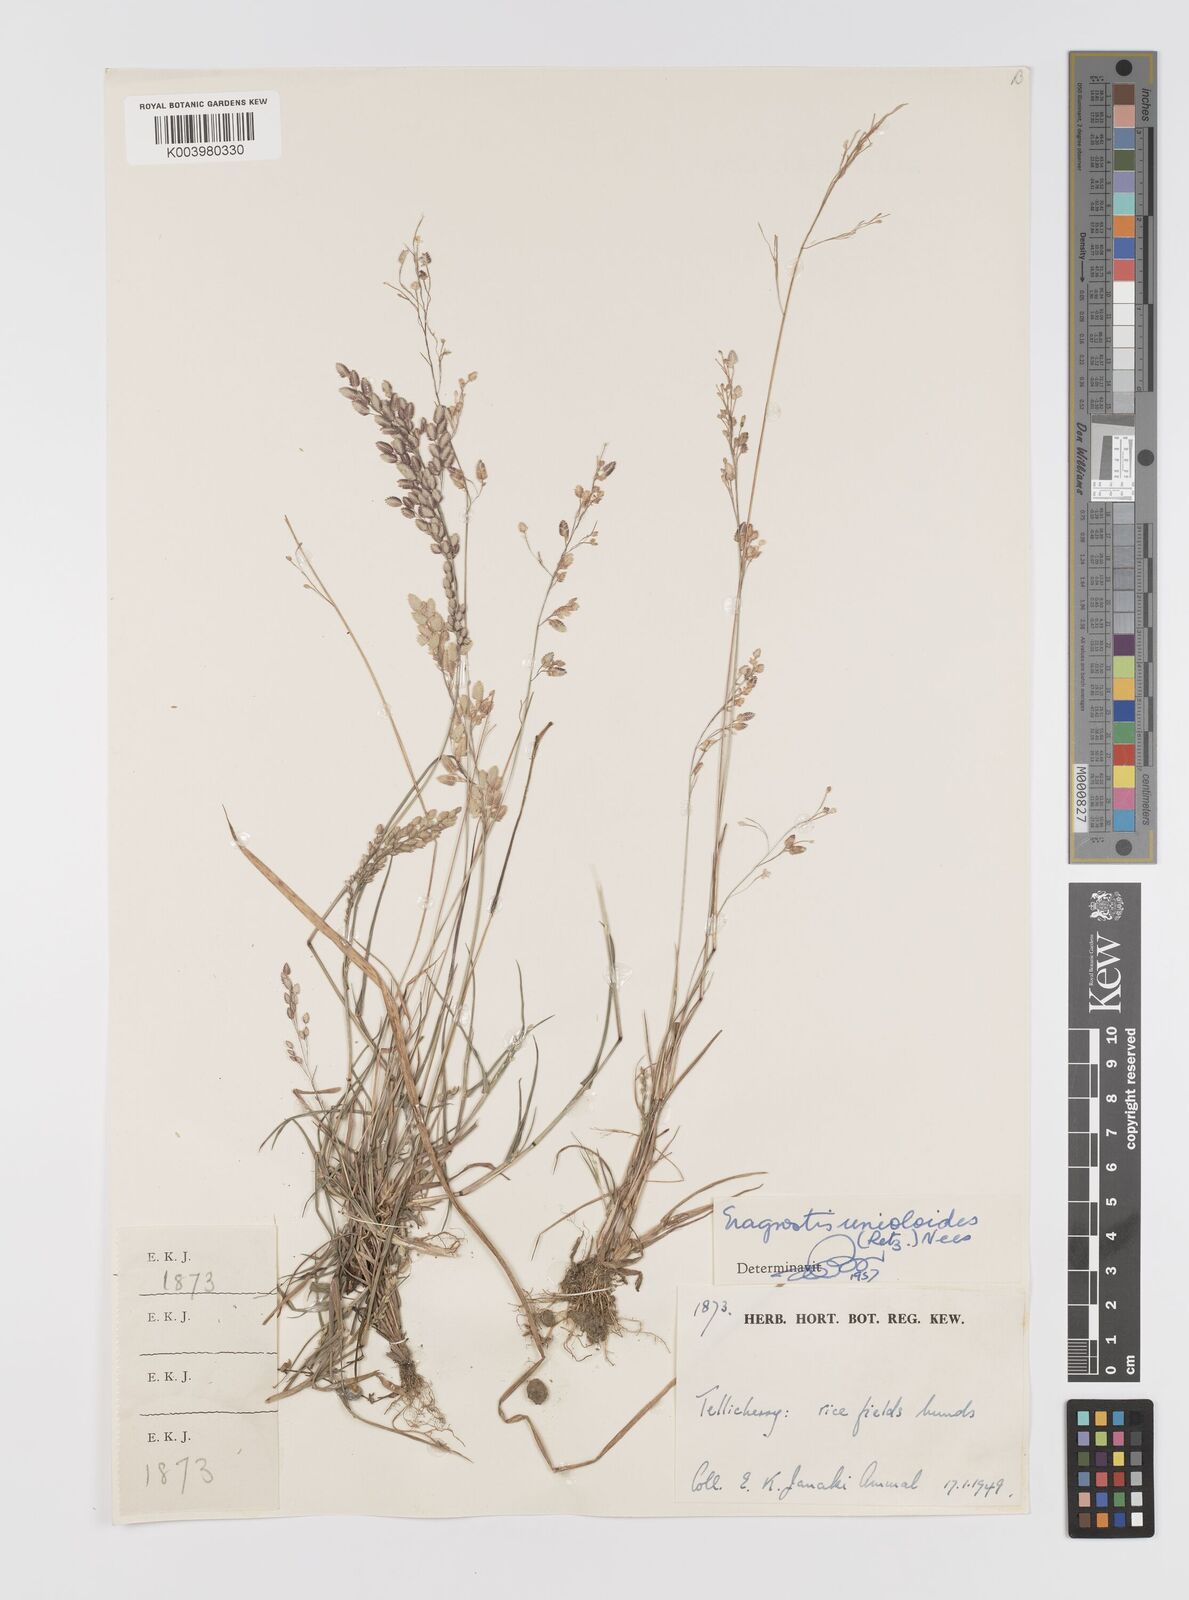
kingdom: Plantae
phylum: Tracheophyta
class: Liliopsida
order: Poales
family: Poaceae
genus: Eragrostis
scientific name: Eragrostis unioloides
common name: Chinese lovegrass
